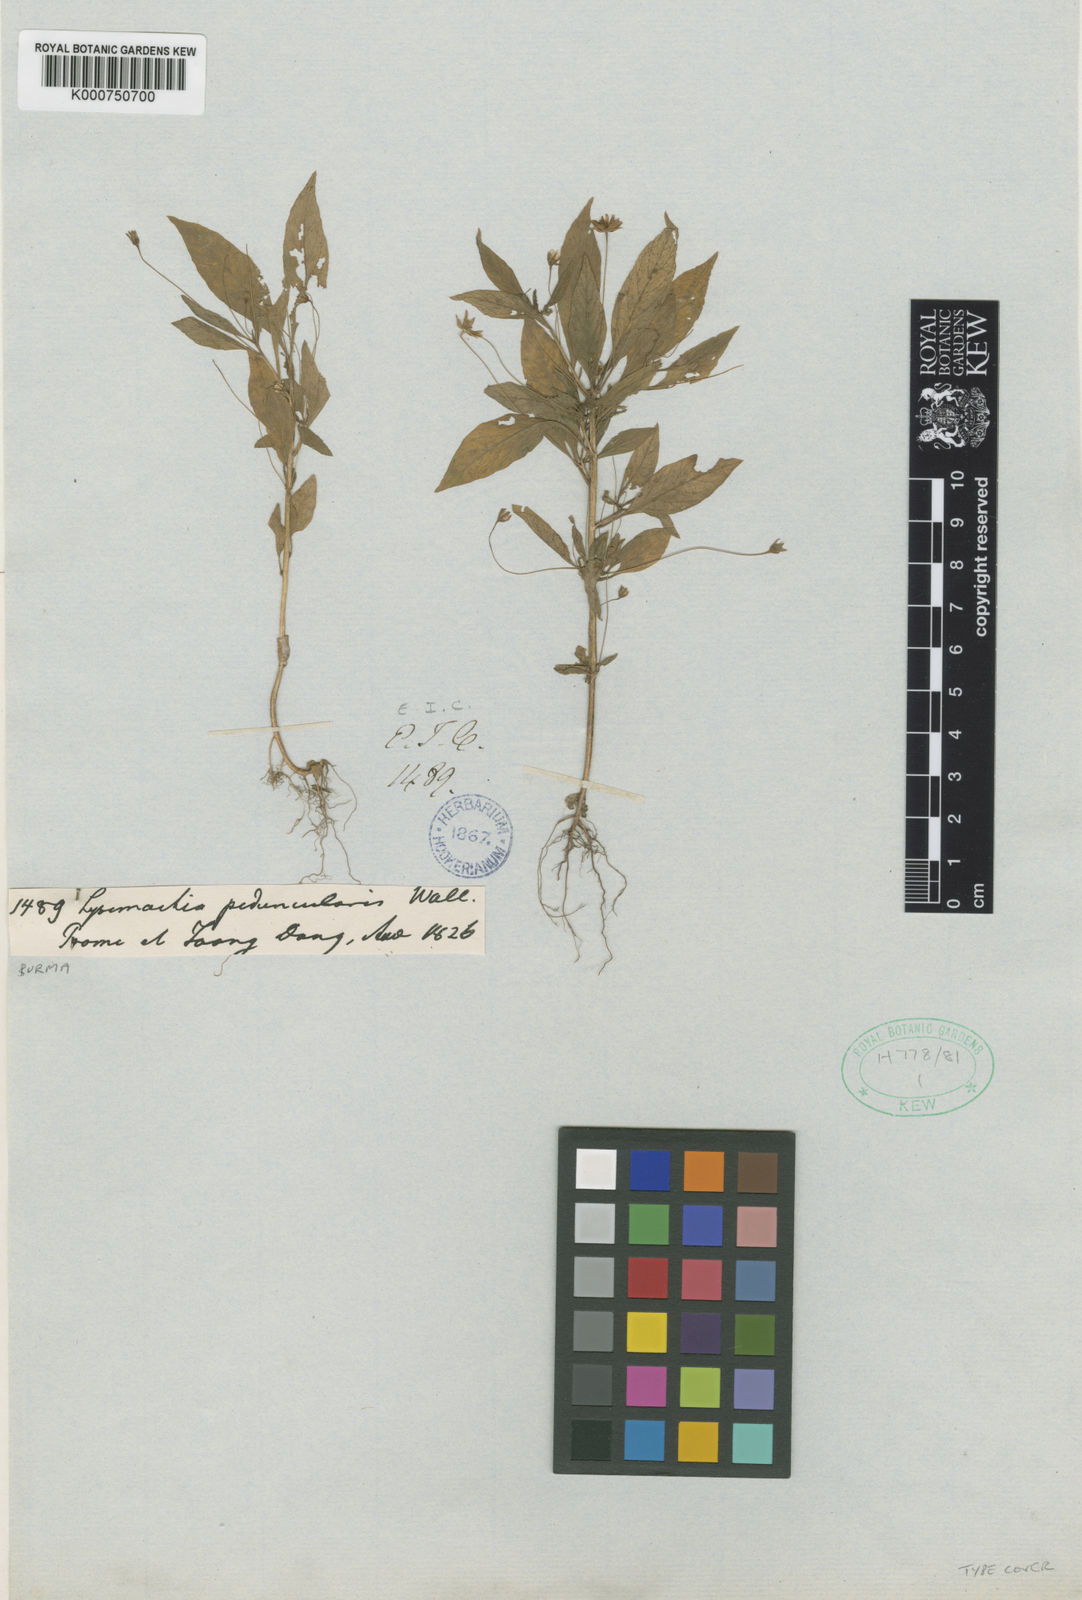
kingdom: Plantae
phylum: Tracheophyta
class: Magnoliopsida
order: Ericales
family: Primulaceae
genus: Lysimachia
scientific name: Lysimachia peduncularis
